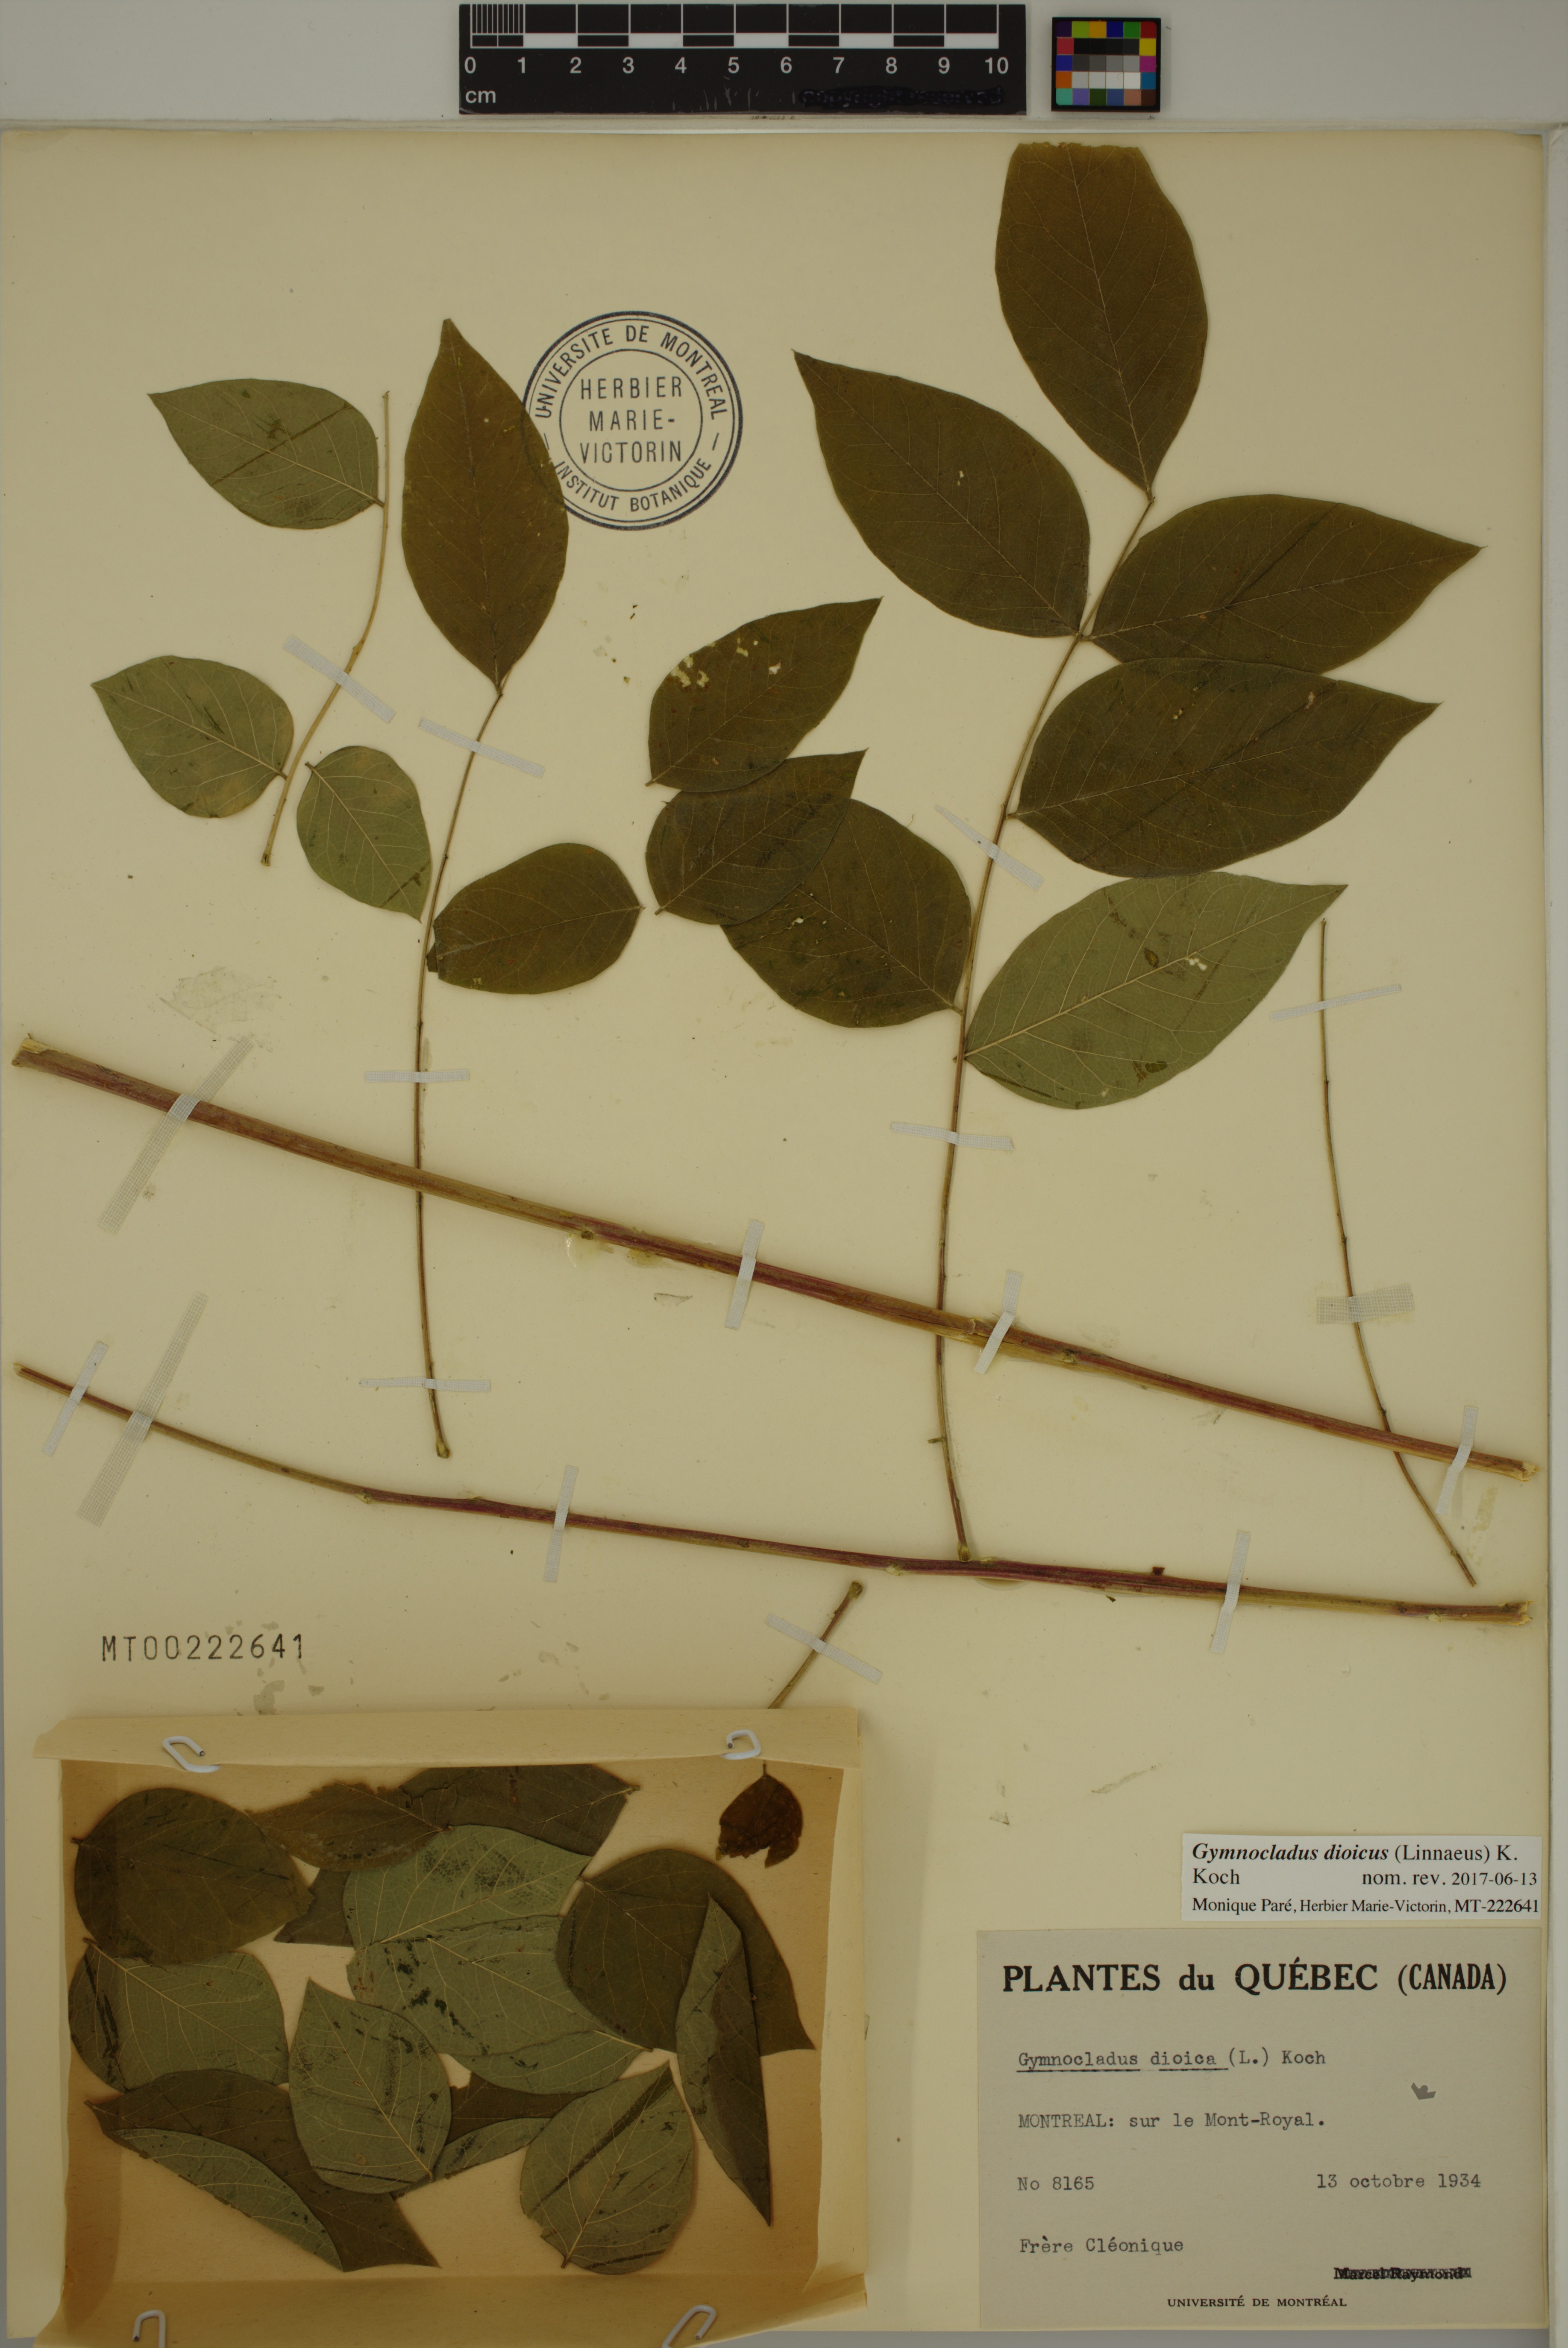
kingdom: Plantae
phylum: Tracheophyta
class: Magnoliopsida
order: Fabales
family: Fabaceae
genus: Gymnocladus
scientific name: Gymnocladus dioicus
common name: Kentucky coffee-tree
